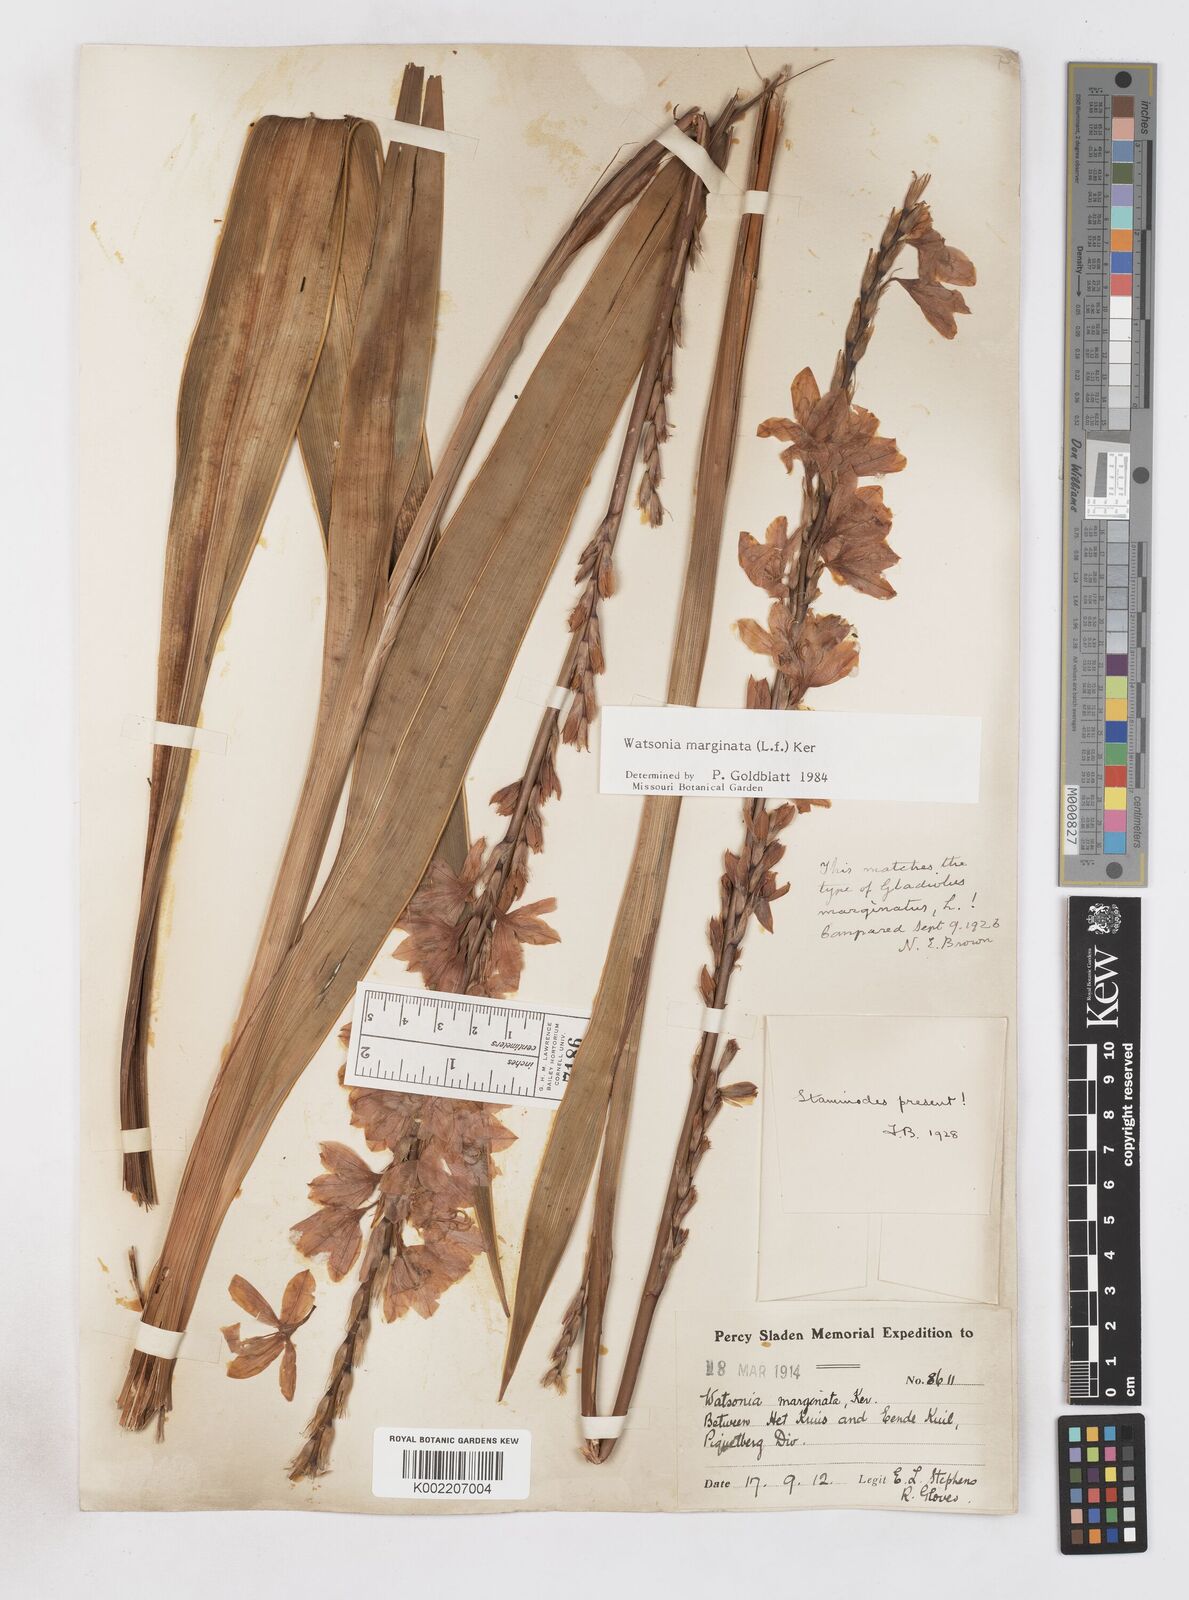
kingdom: Plantae
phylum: Tracheophyta
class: Liliopsida
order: Asparagales
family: Iridaceae
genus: Watsonia
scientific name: Watsonia marginata
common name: Fragrant bugle-lily
